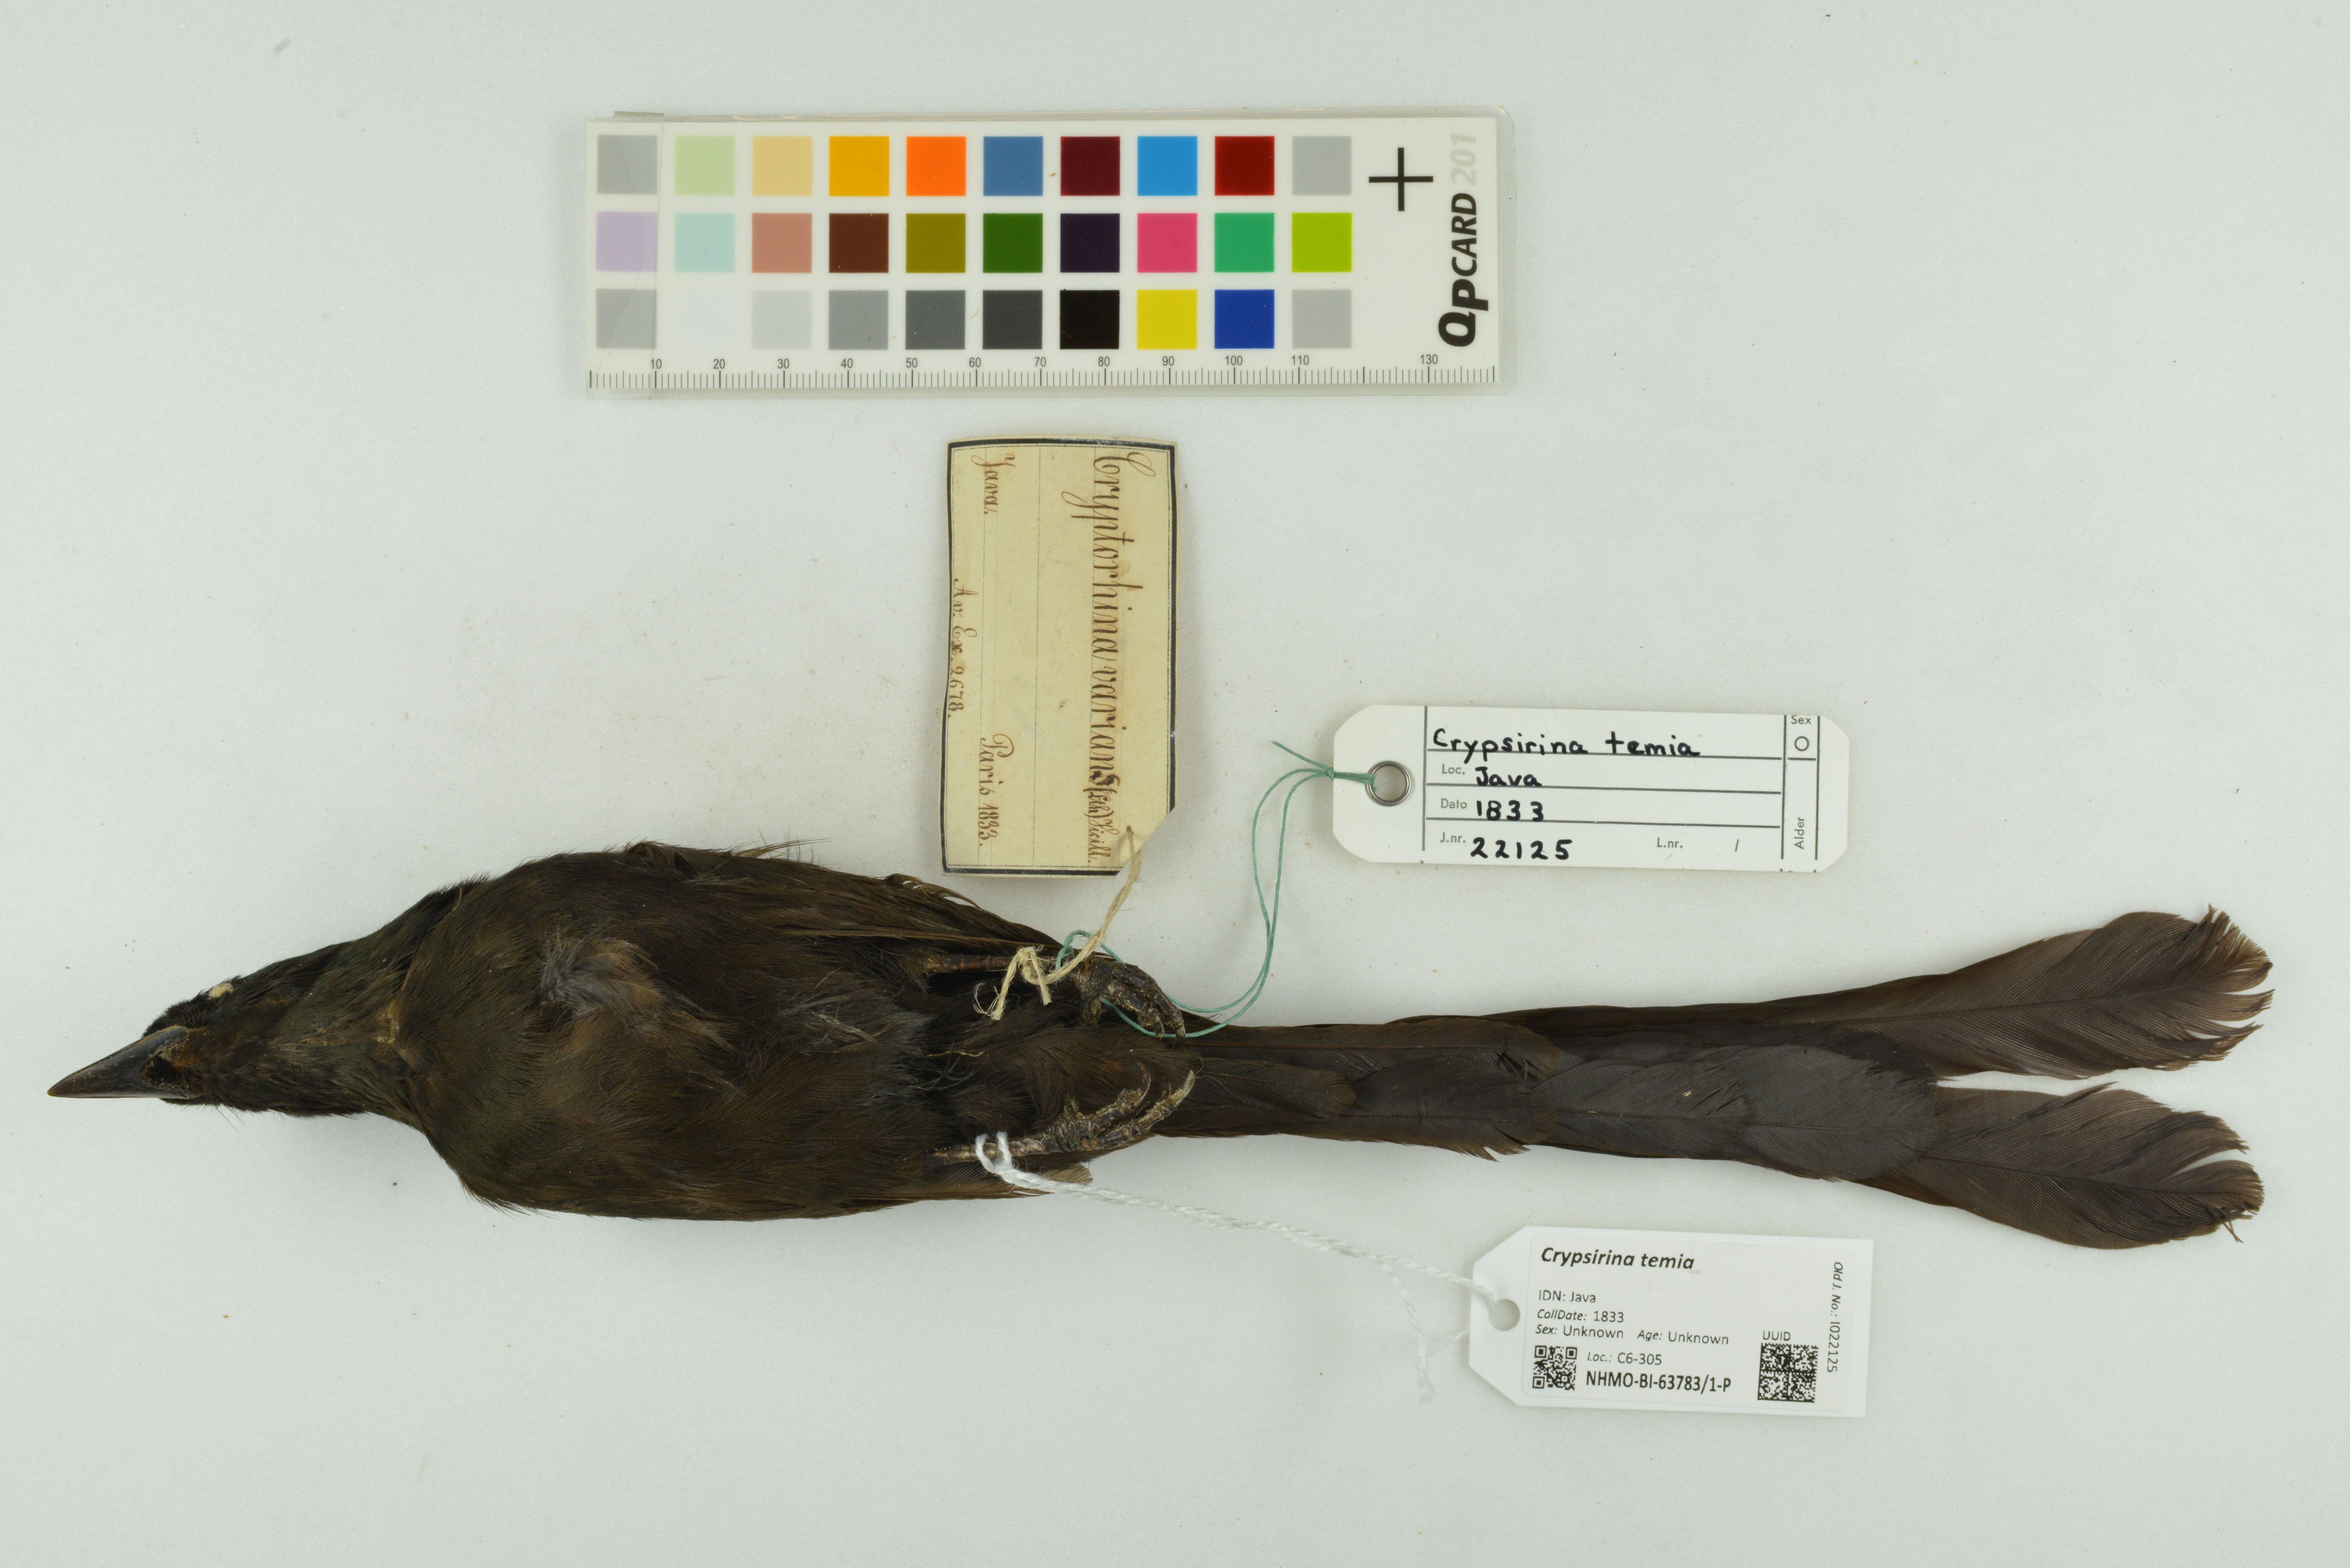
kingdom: Animalia
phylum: Chordata
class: Aves
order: Passeriformes
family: Corvidae
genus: Crypsirina
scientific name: Crypsirina temia
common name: Racket-tailed treepie
